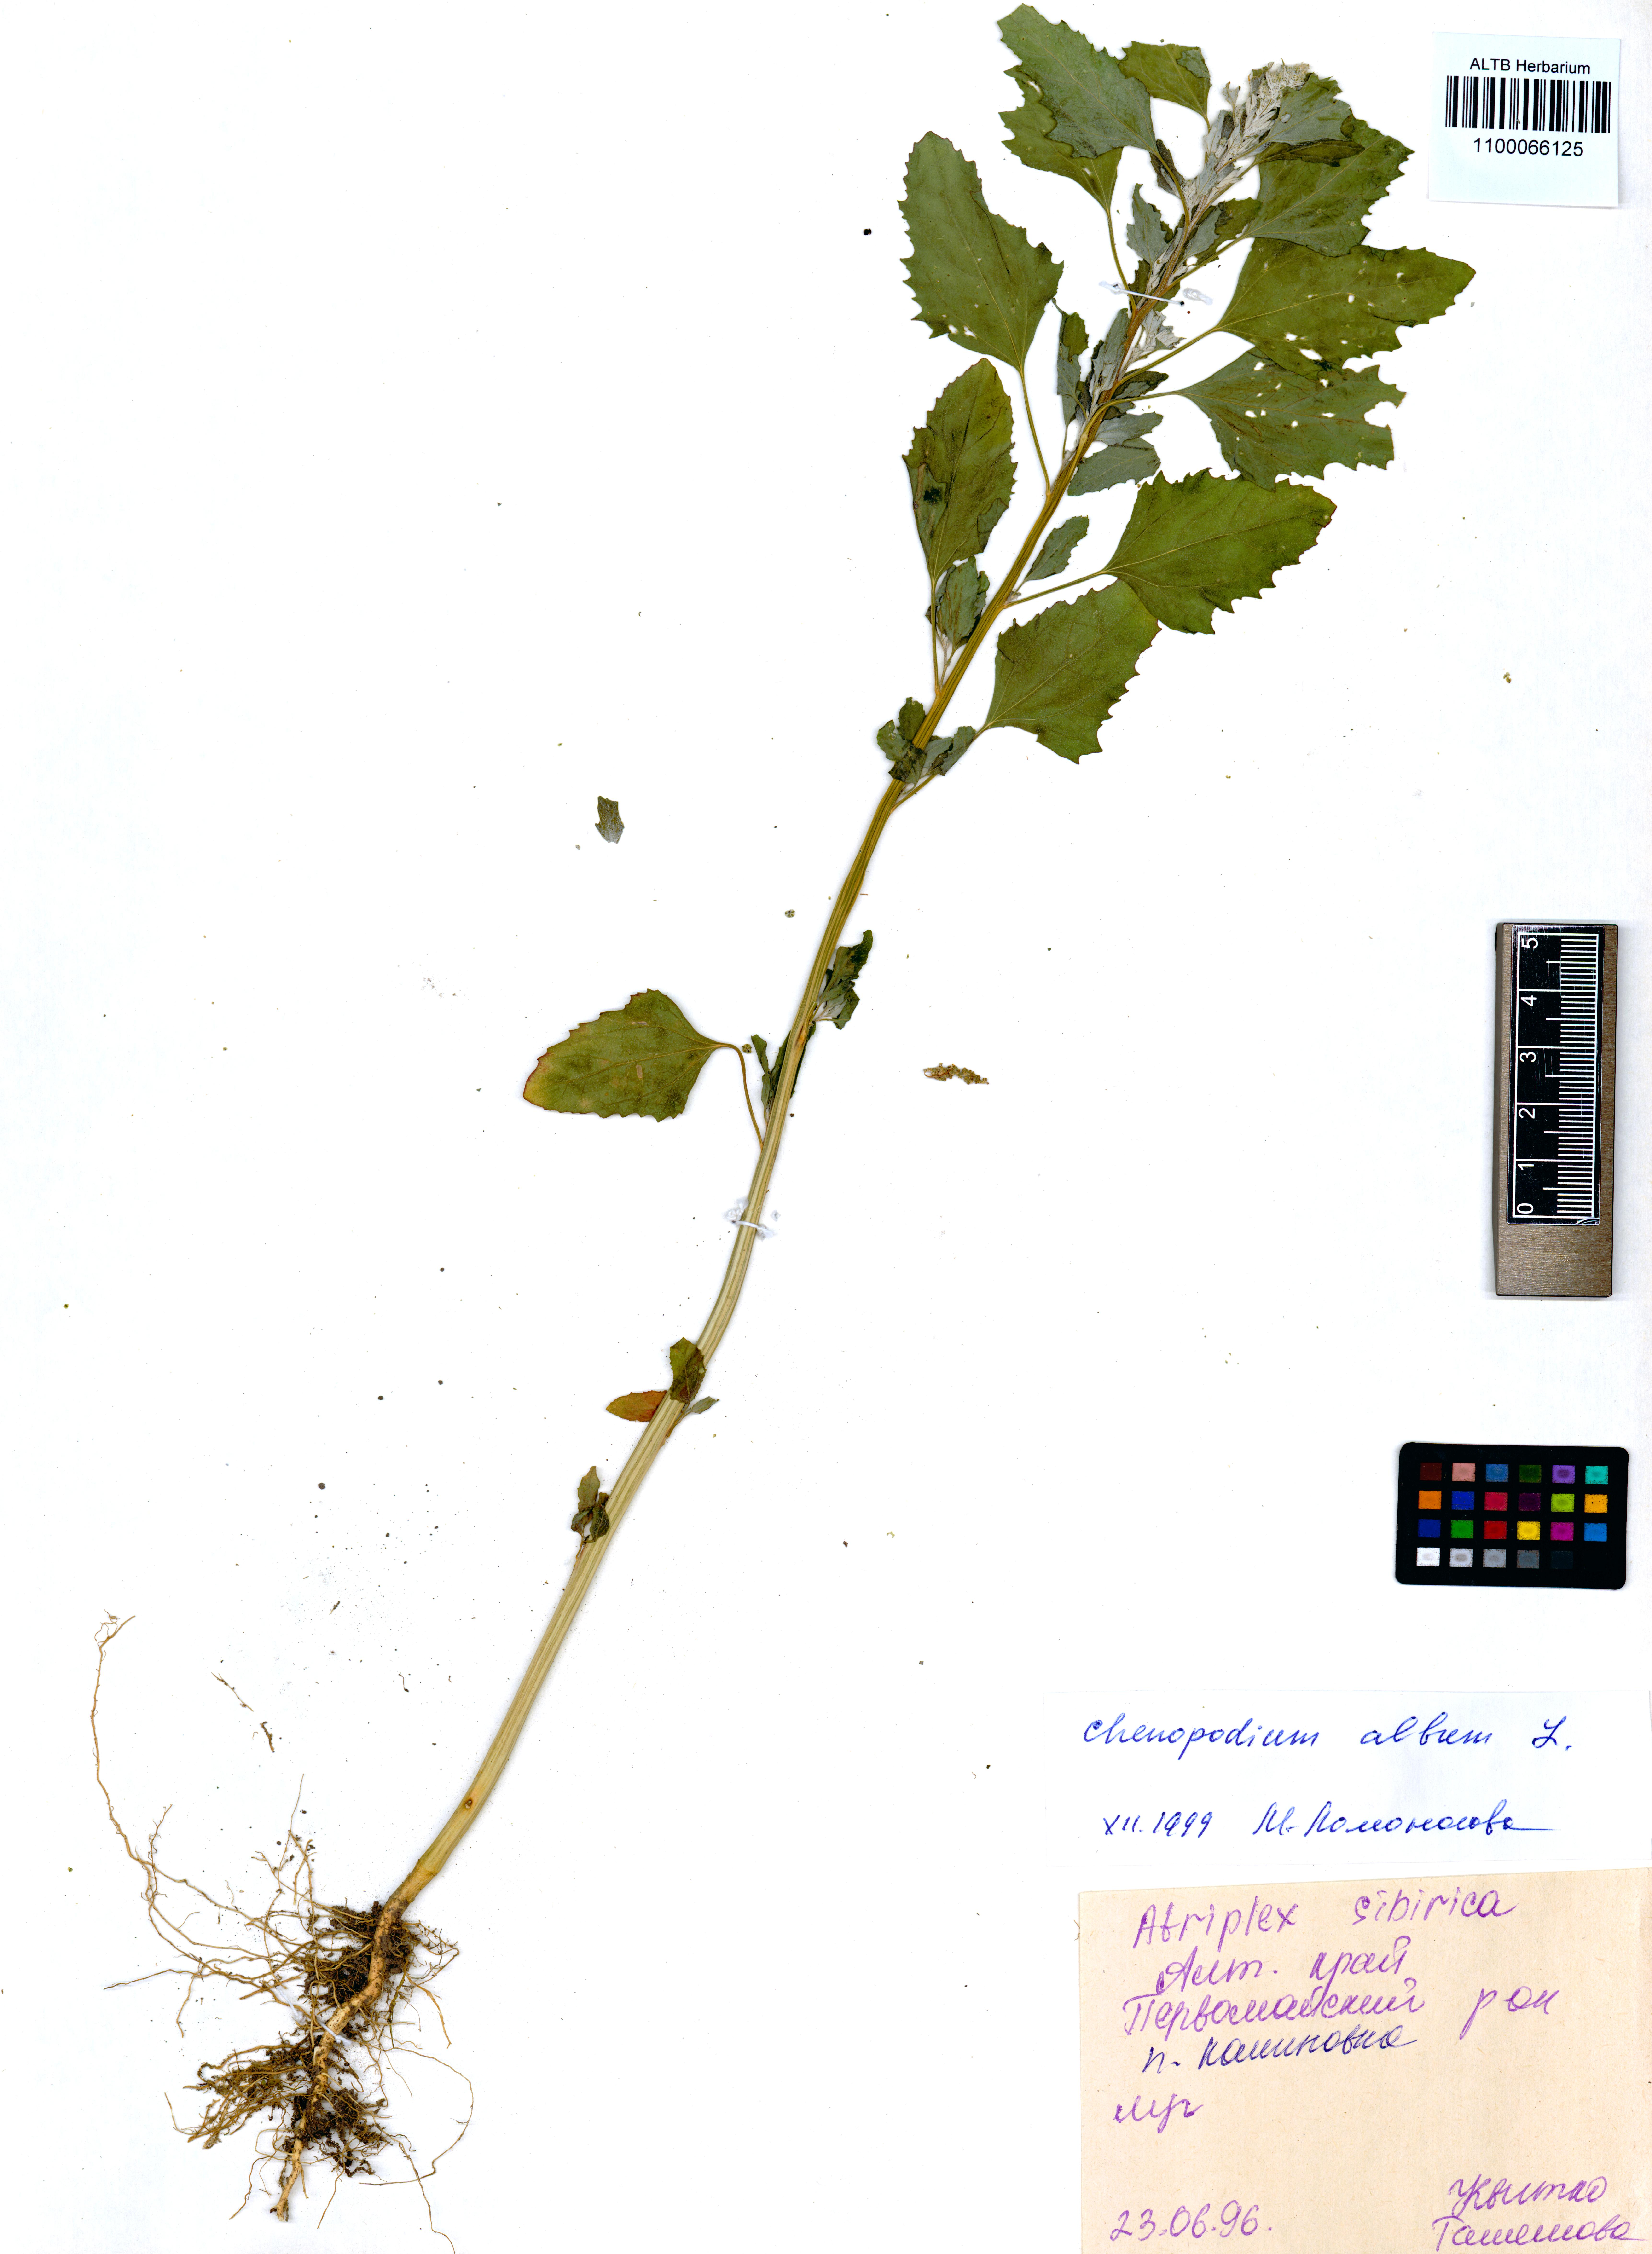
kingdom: Plantae
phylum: Tracheophyta
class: Magnoliopsida
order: Caryophyllales
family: Amaranthaceae
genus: Chenopodium
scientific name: Chenopodium album
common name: Fat-hen
